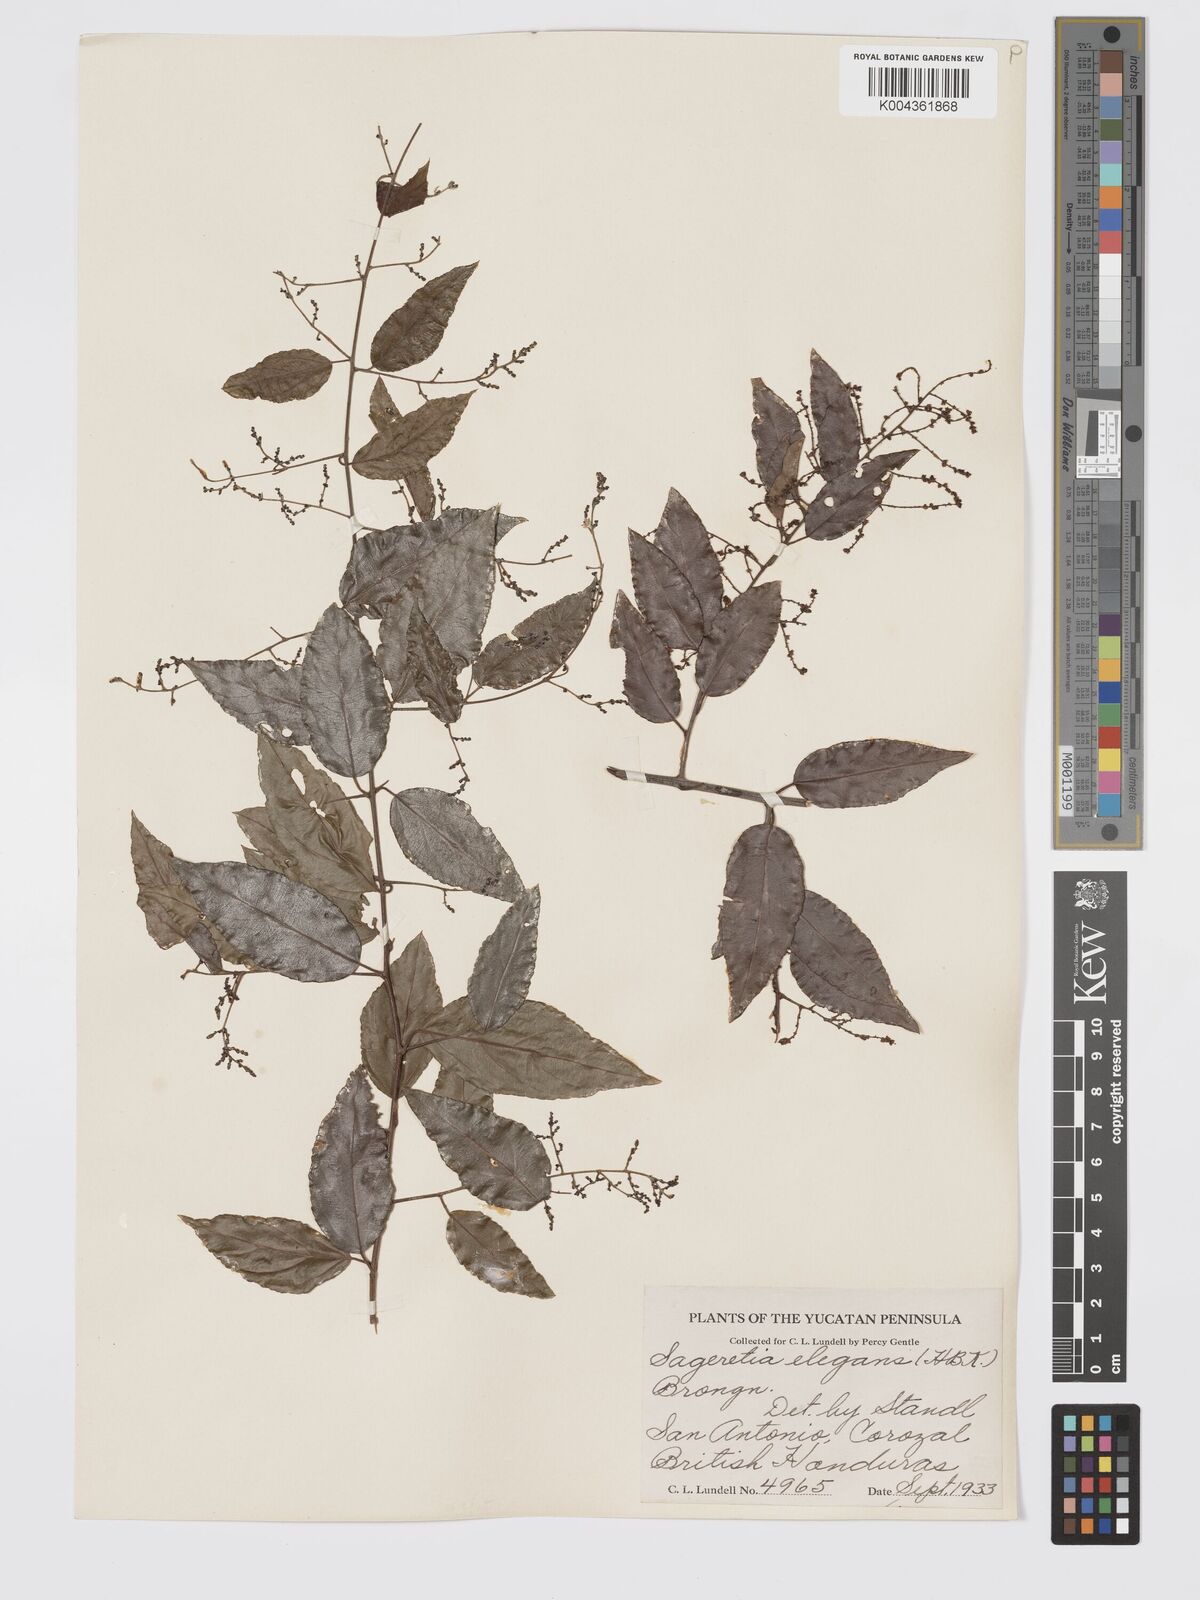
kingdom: Plantae
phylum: Tracheophyta
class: Magnoliopsida
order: Rosales
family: Rhamnaceae
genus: Sageretia
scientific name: Sageretia elegans
